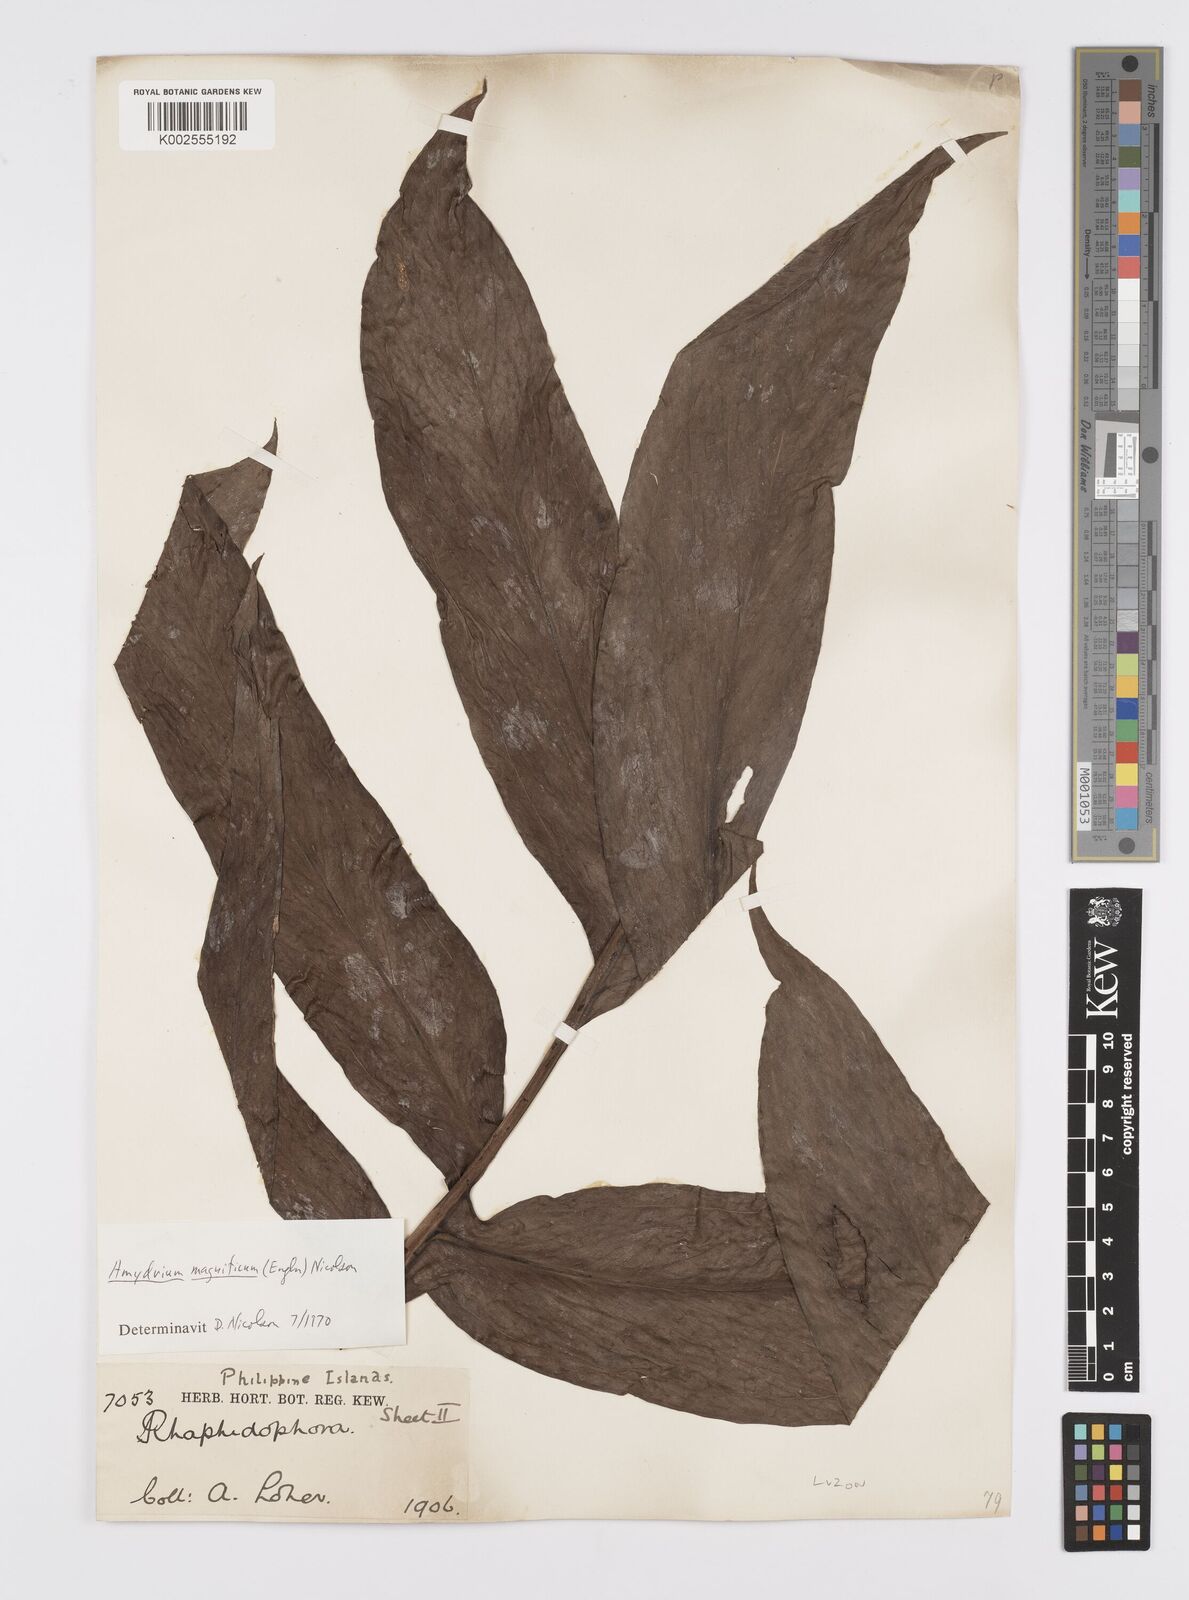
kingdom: Plantae
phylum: Tracheophyta
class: Liliopsida
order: Alismatales
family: Araceae
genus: Amydrium
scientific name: Amydrium zippelianum
